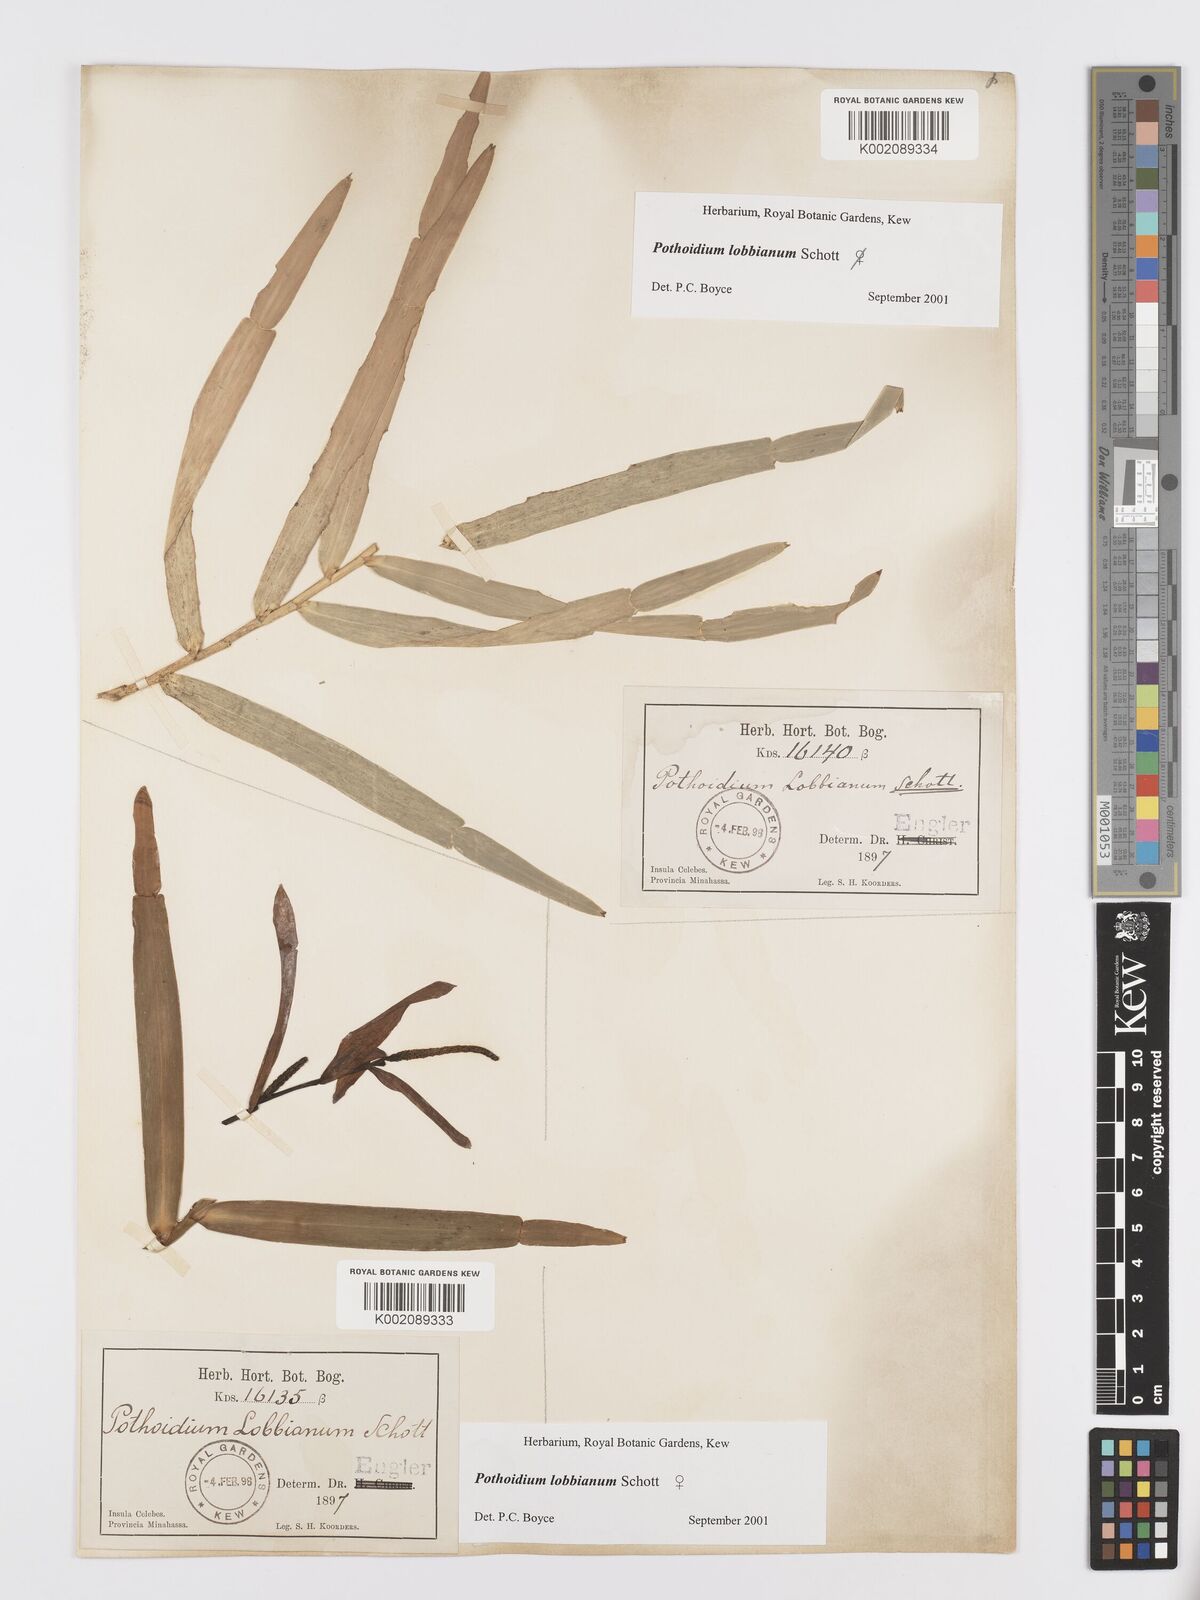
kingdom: Plantae
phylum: Tracheophyta
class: Liliopsida
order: Alismatales
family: Araceae
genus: Pothoidium
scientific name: Pothoidium lobbianum
